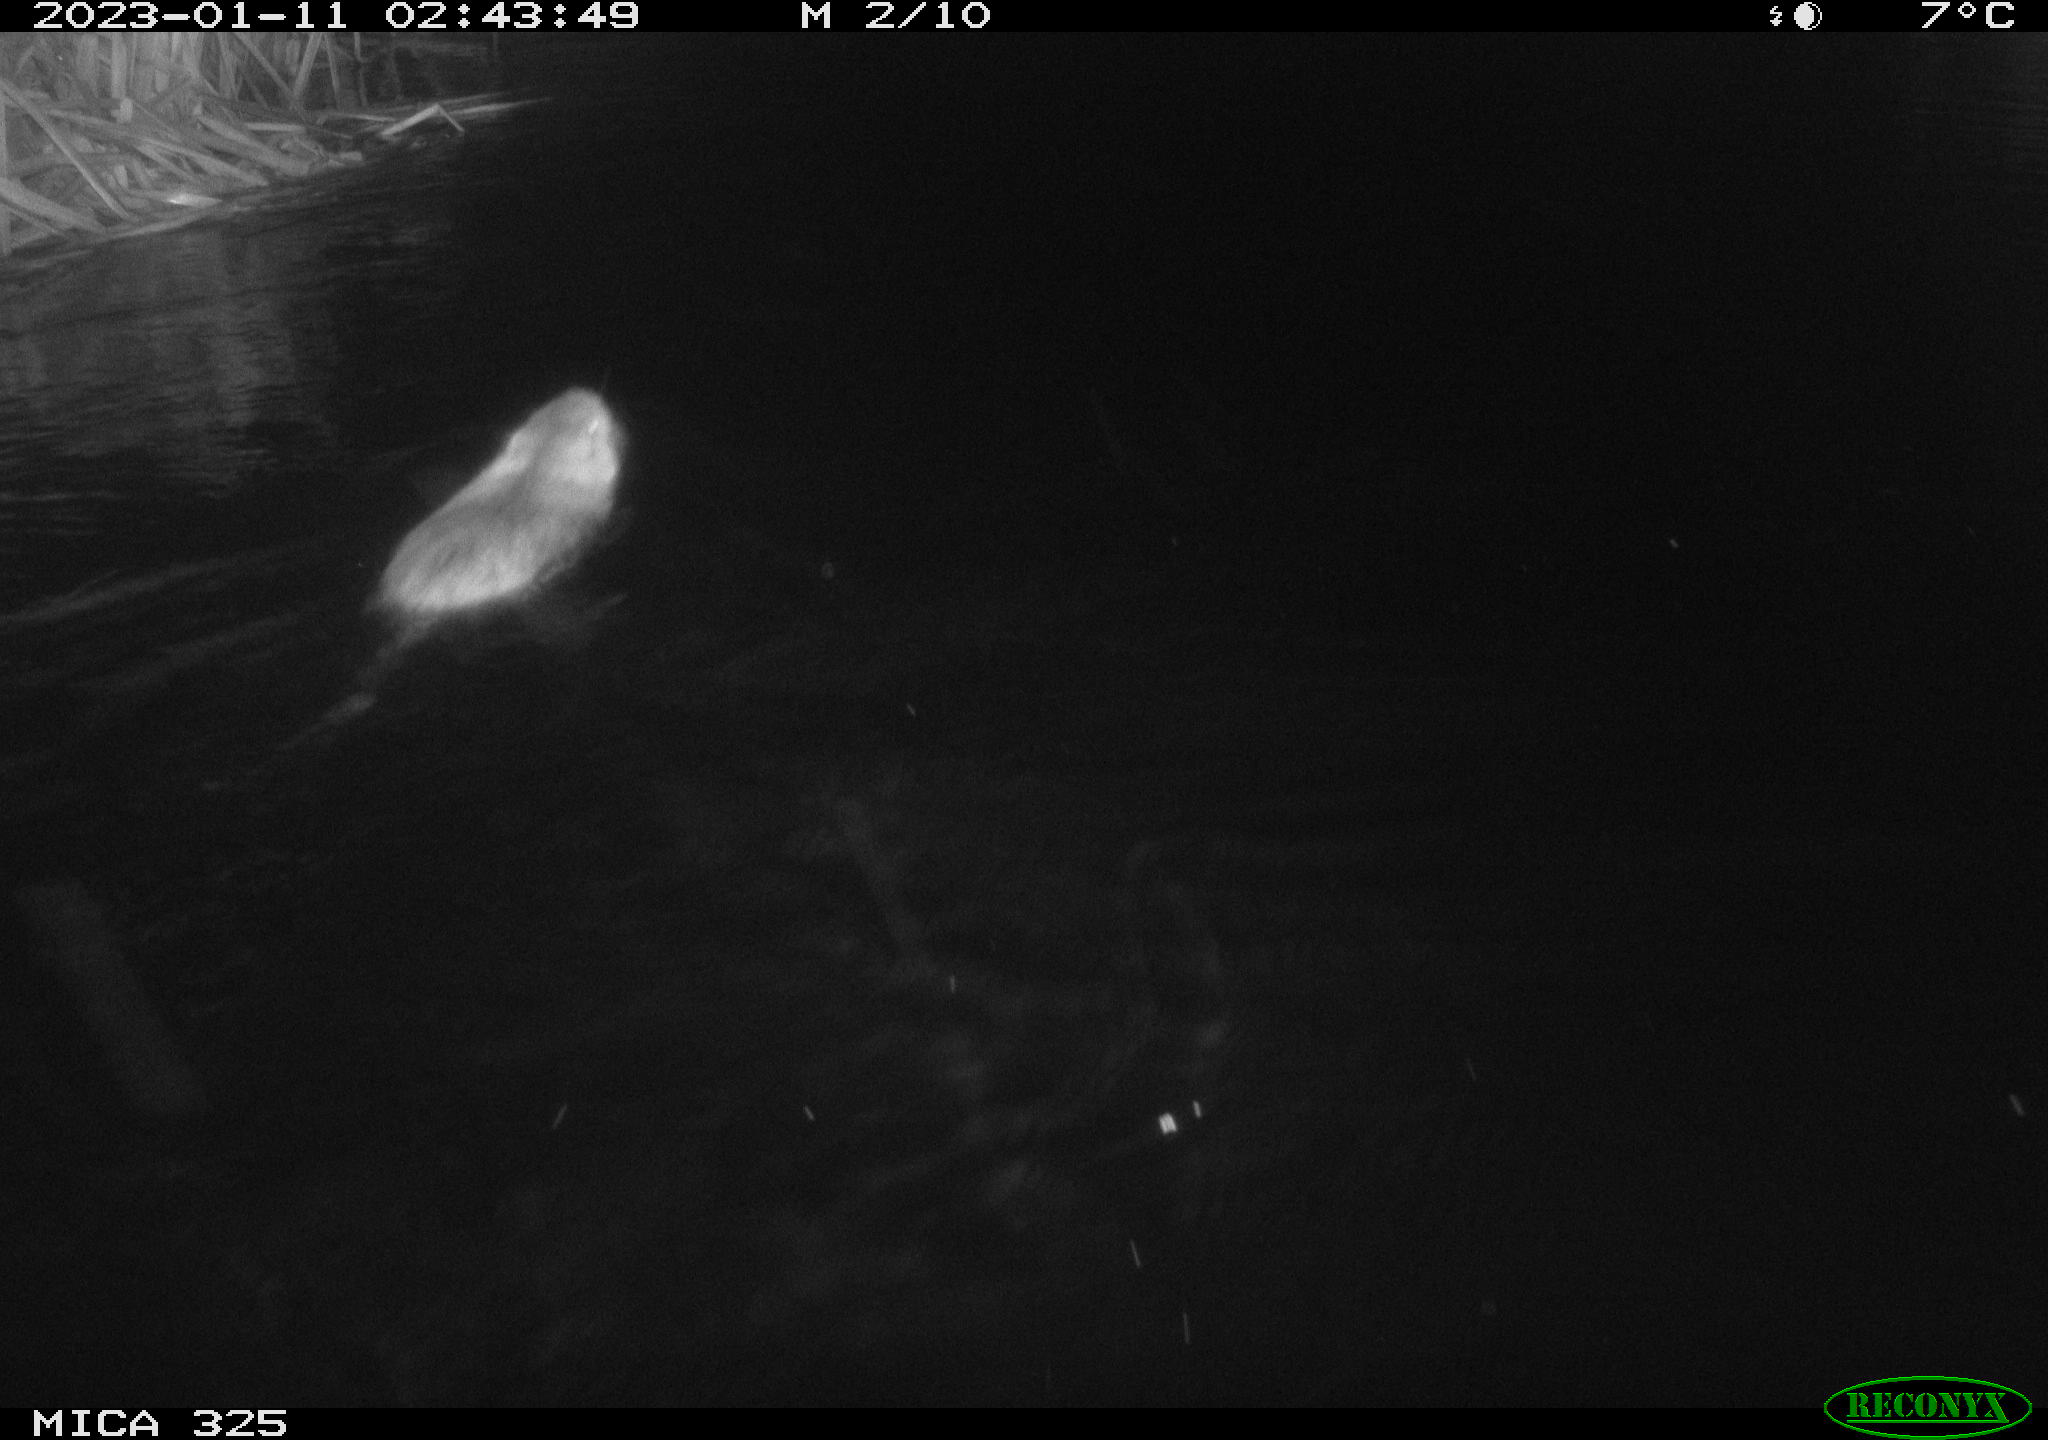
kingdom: Animalia
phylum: Chordata
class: Mammalia
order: Rodentia
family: Myocastoridae
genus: Myocastor
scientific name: Myocastor coypus
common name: Coypu
